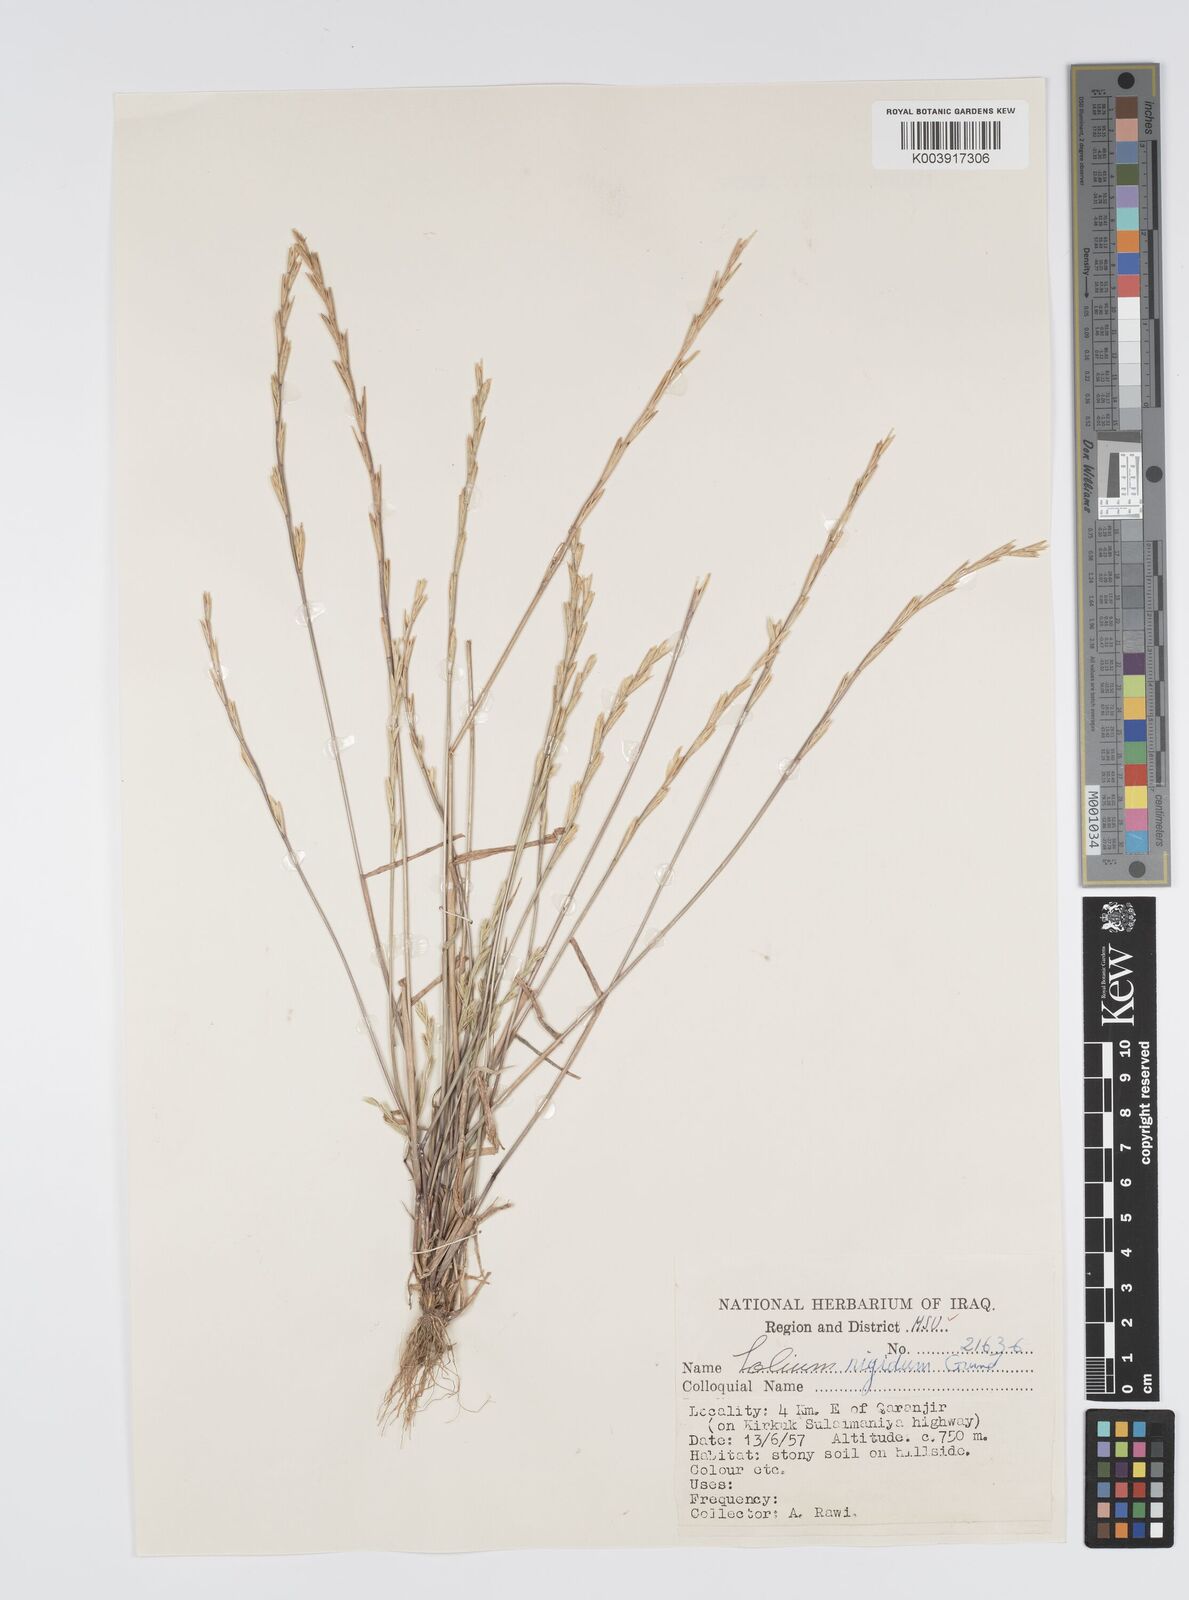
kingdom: Plantae
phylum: Tracheophyta
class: Liliopsida
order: Poales
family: Poaceae
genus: Lolium
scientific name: Lolium rigidum
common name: Wimmera ryegrass
